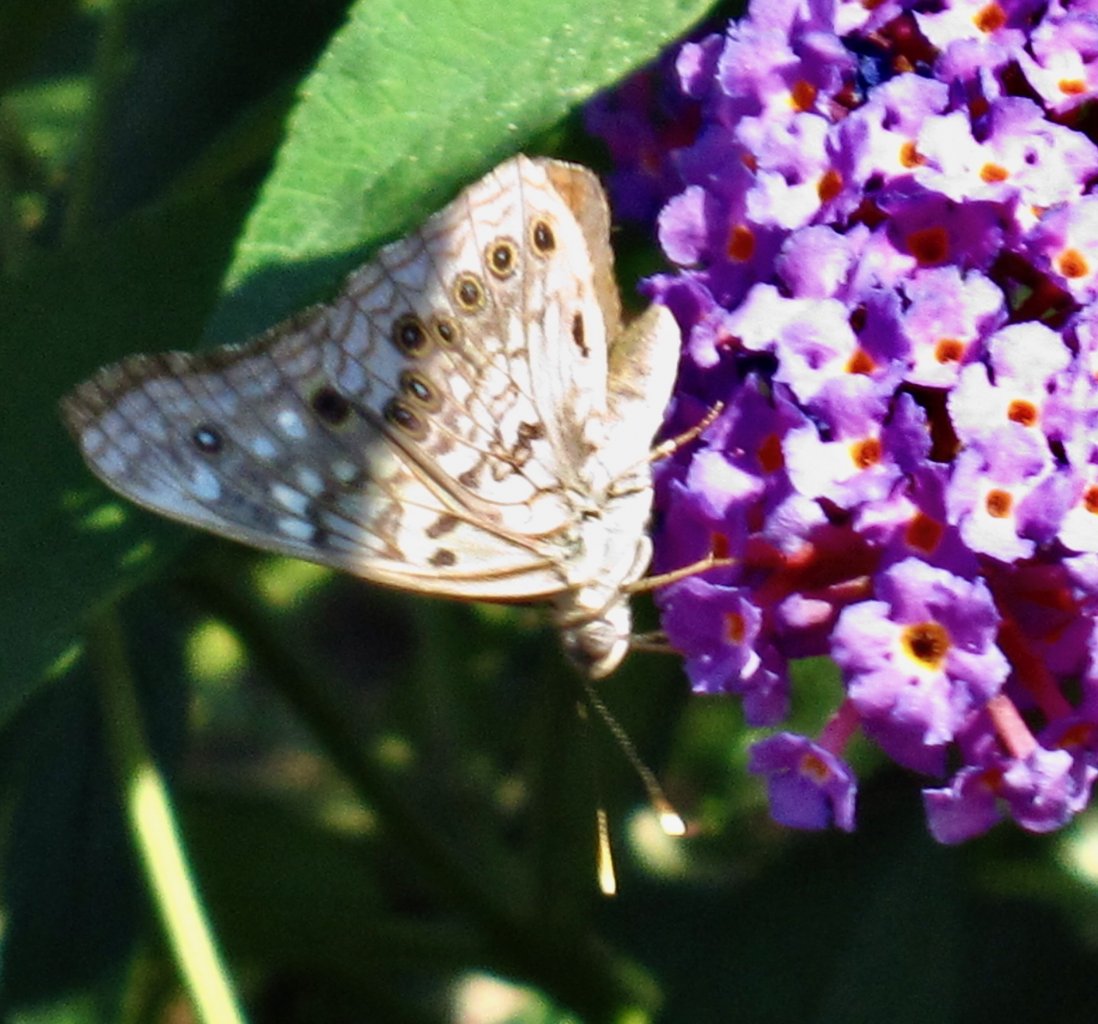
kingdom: Animalia
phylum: Arthropoda
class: Insecta
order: Lepidoptera
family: Nymphalidae
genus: Asterocampa
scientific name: Asterocampa celtis
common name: Hackberry Emperor
